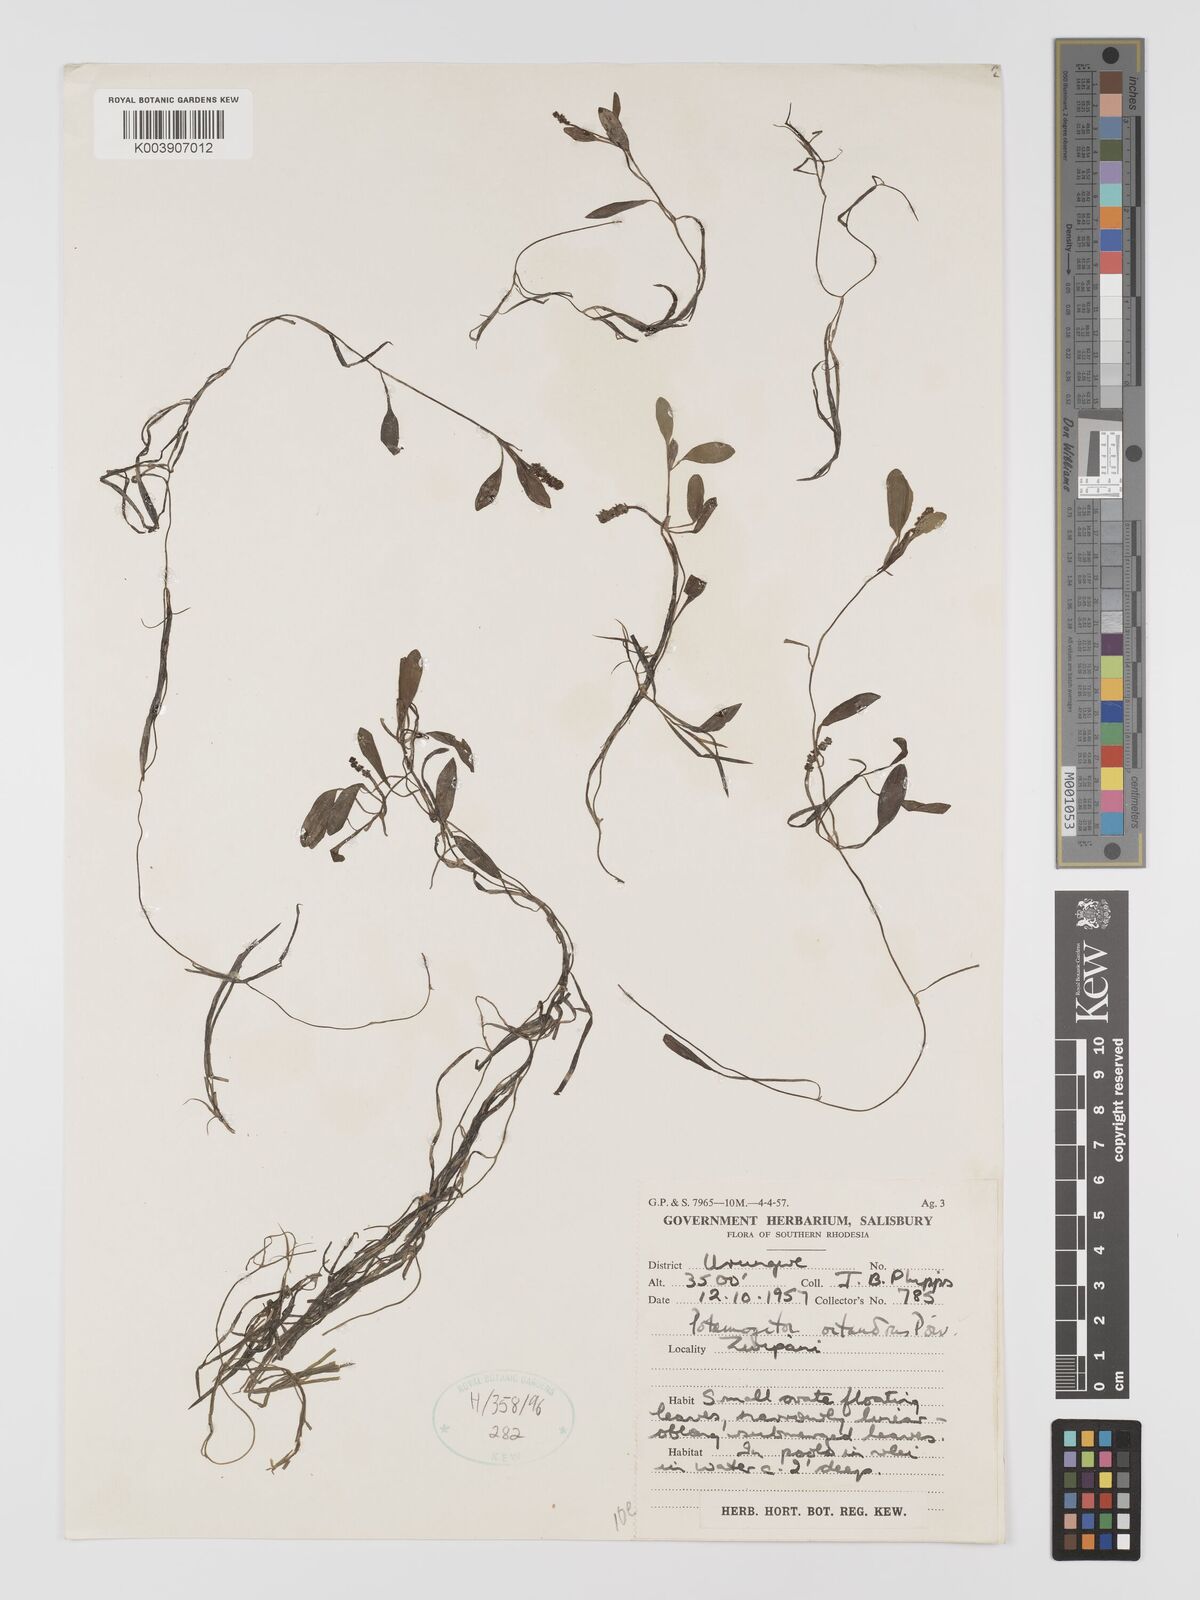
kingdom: Plantae
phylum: Tracheophyta
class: Liliopsida
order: Alismatales
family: Potamogetonaceae
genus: Potamogeton
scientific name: Potamogeton octandrus
